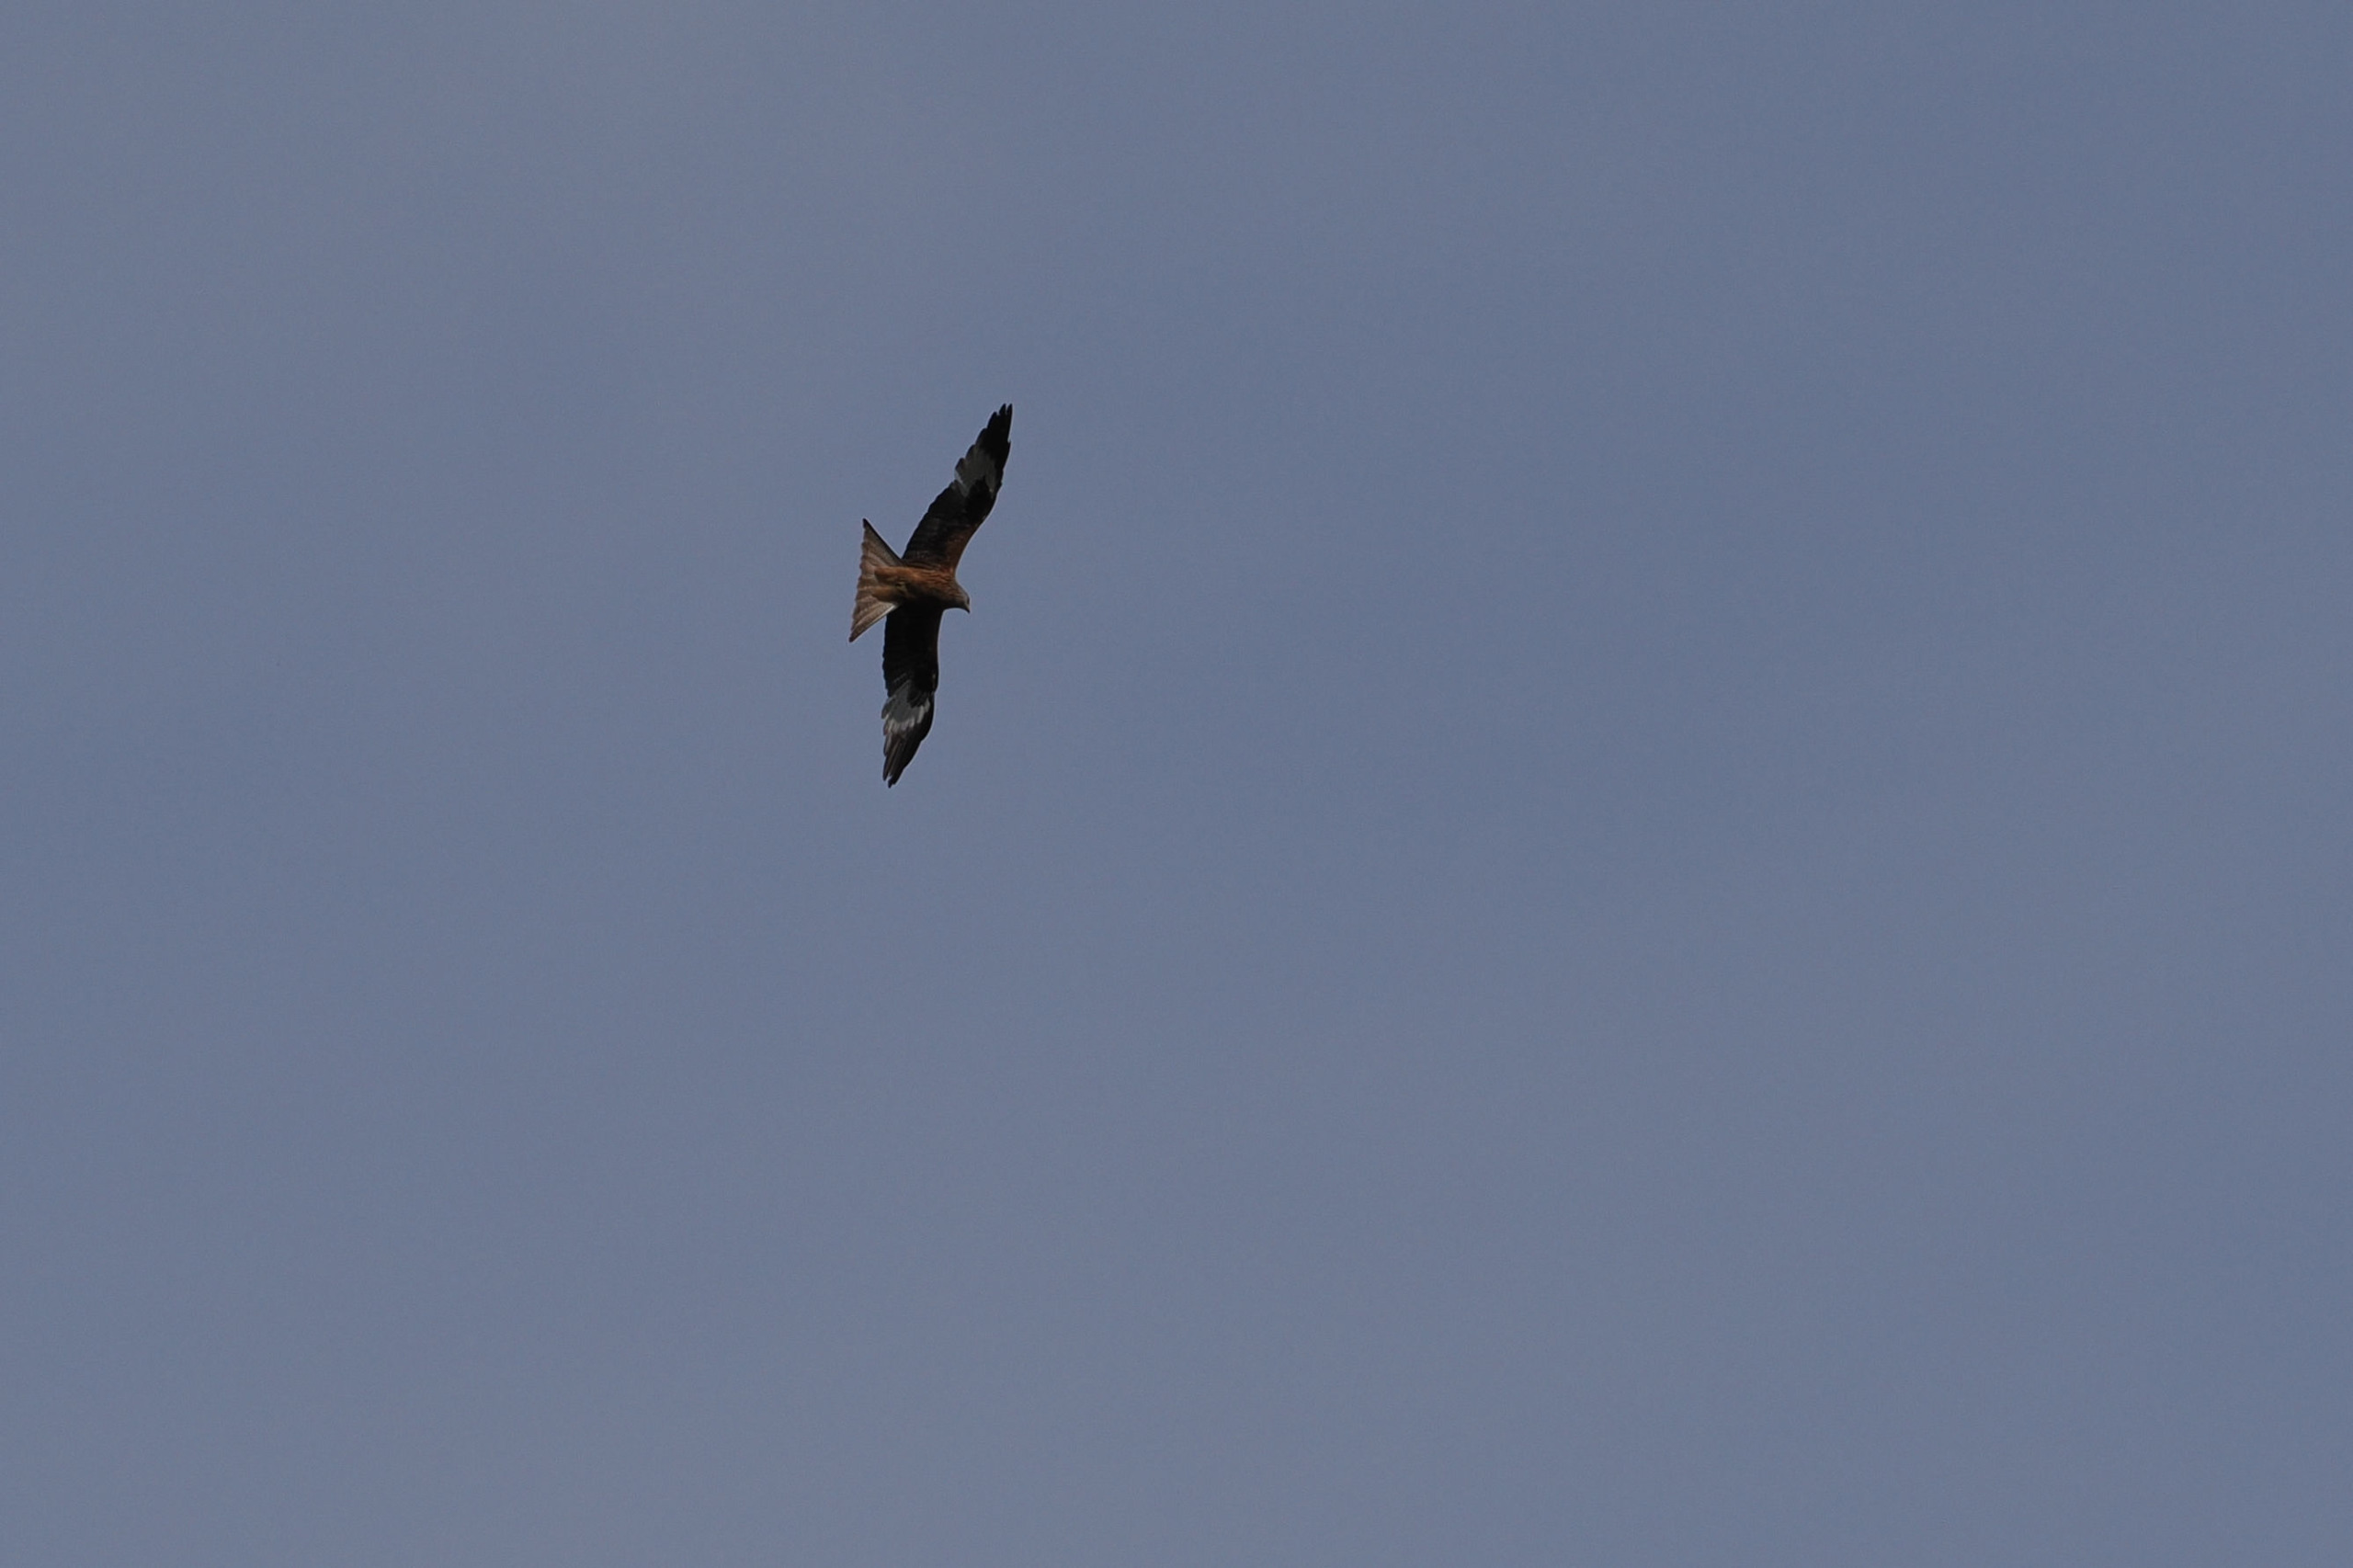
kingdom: Animalia
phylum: Chordata
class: Aves
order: Accipitriformes
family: Accipitridae
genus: Milvus
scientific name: Milvus milvus
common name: Rød glente
